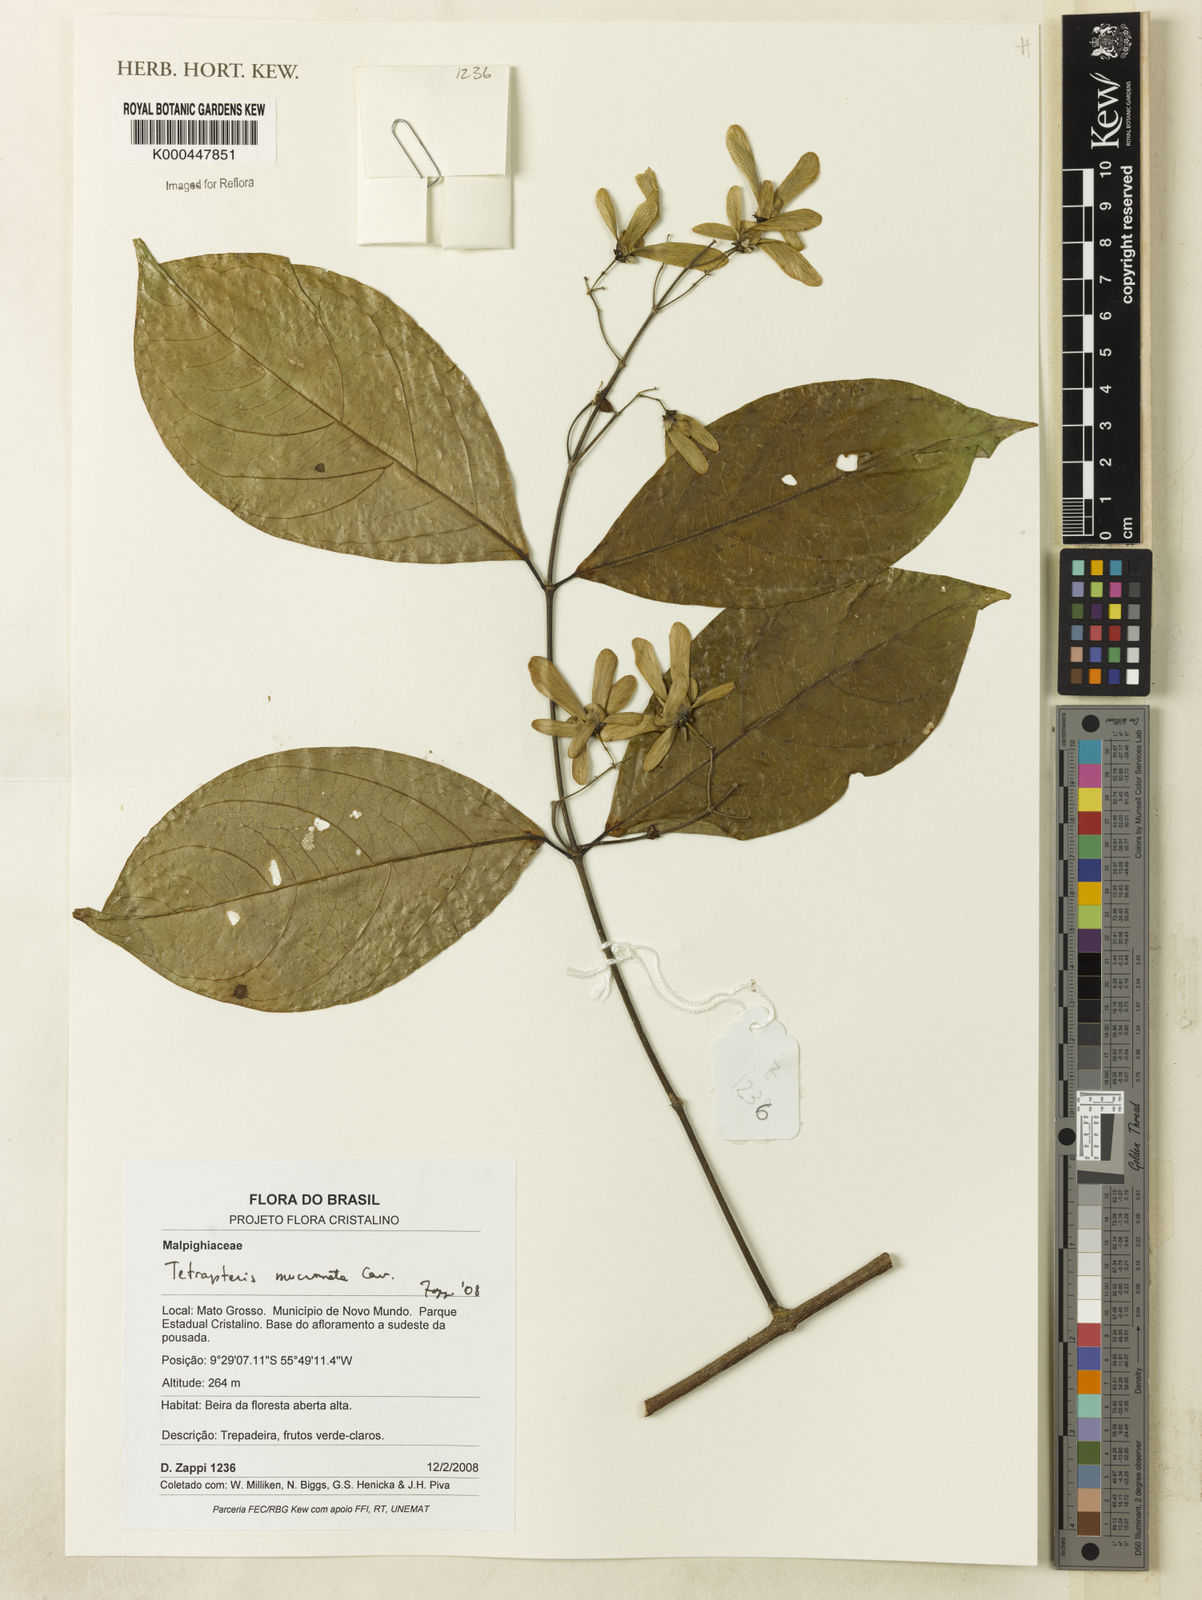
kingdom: Plantae
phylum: Tracheophyta
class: Magnoliopsida
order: Malpighiales
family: Malpighiaceae
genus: Tetrapterys
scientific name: Tetrapterys mucronata
